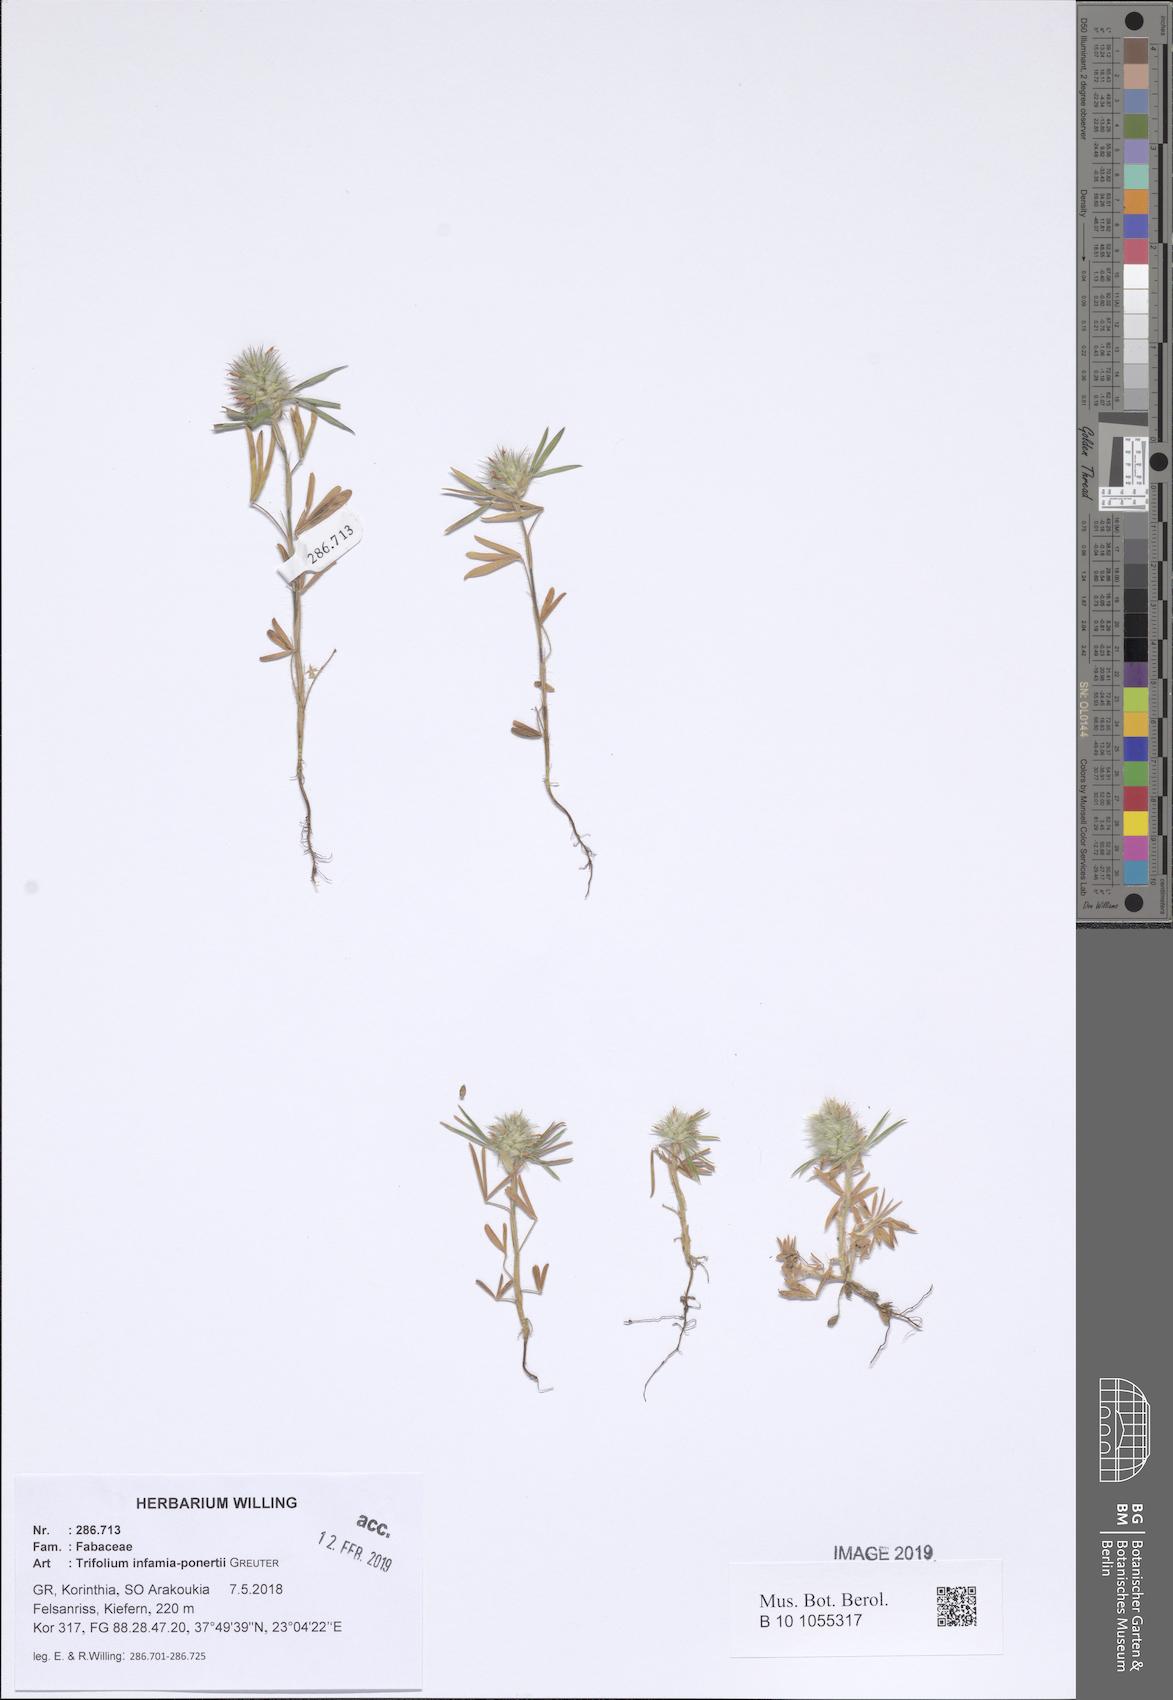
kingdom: Plantae
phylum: Tracheophyta
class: Magnoliopsida
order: Fabales
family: Fabaceae
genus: Trifolium
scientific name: Trifolium infamia-ponertii
